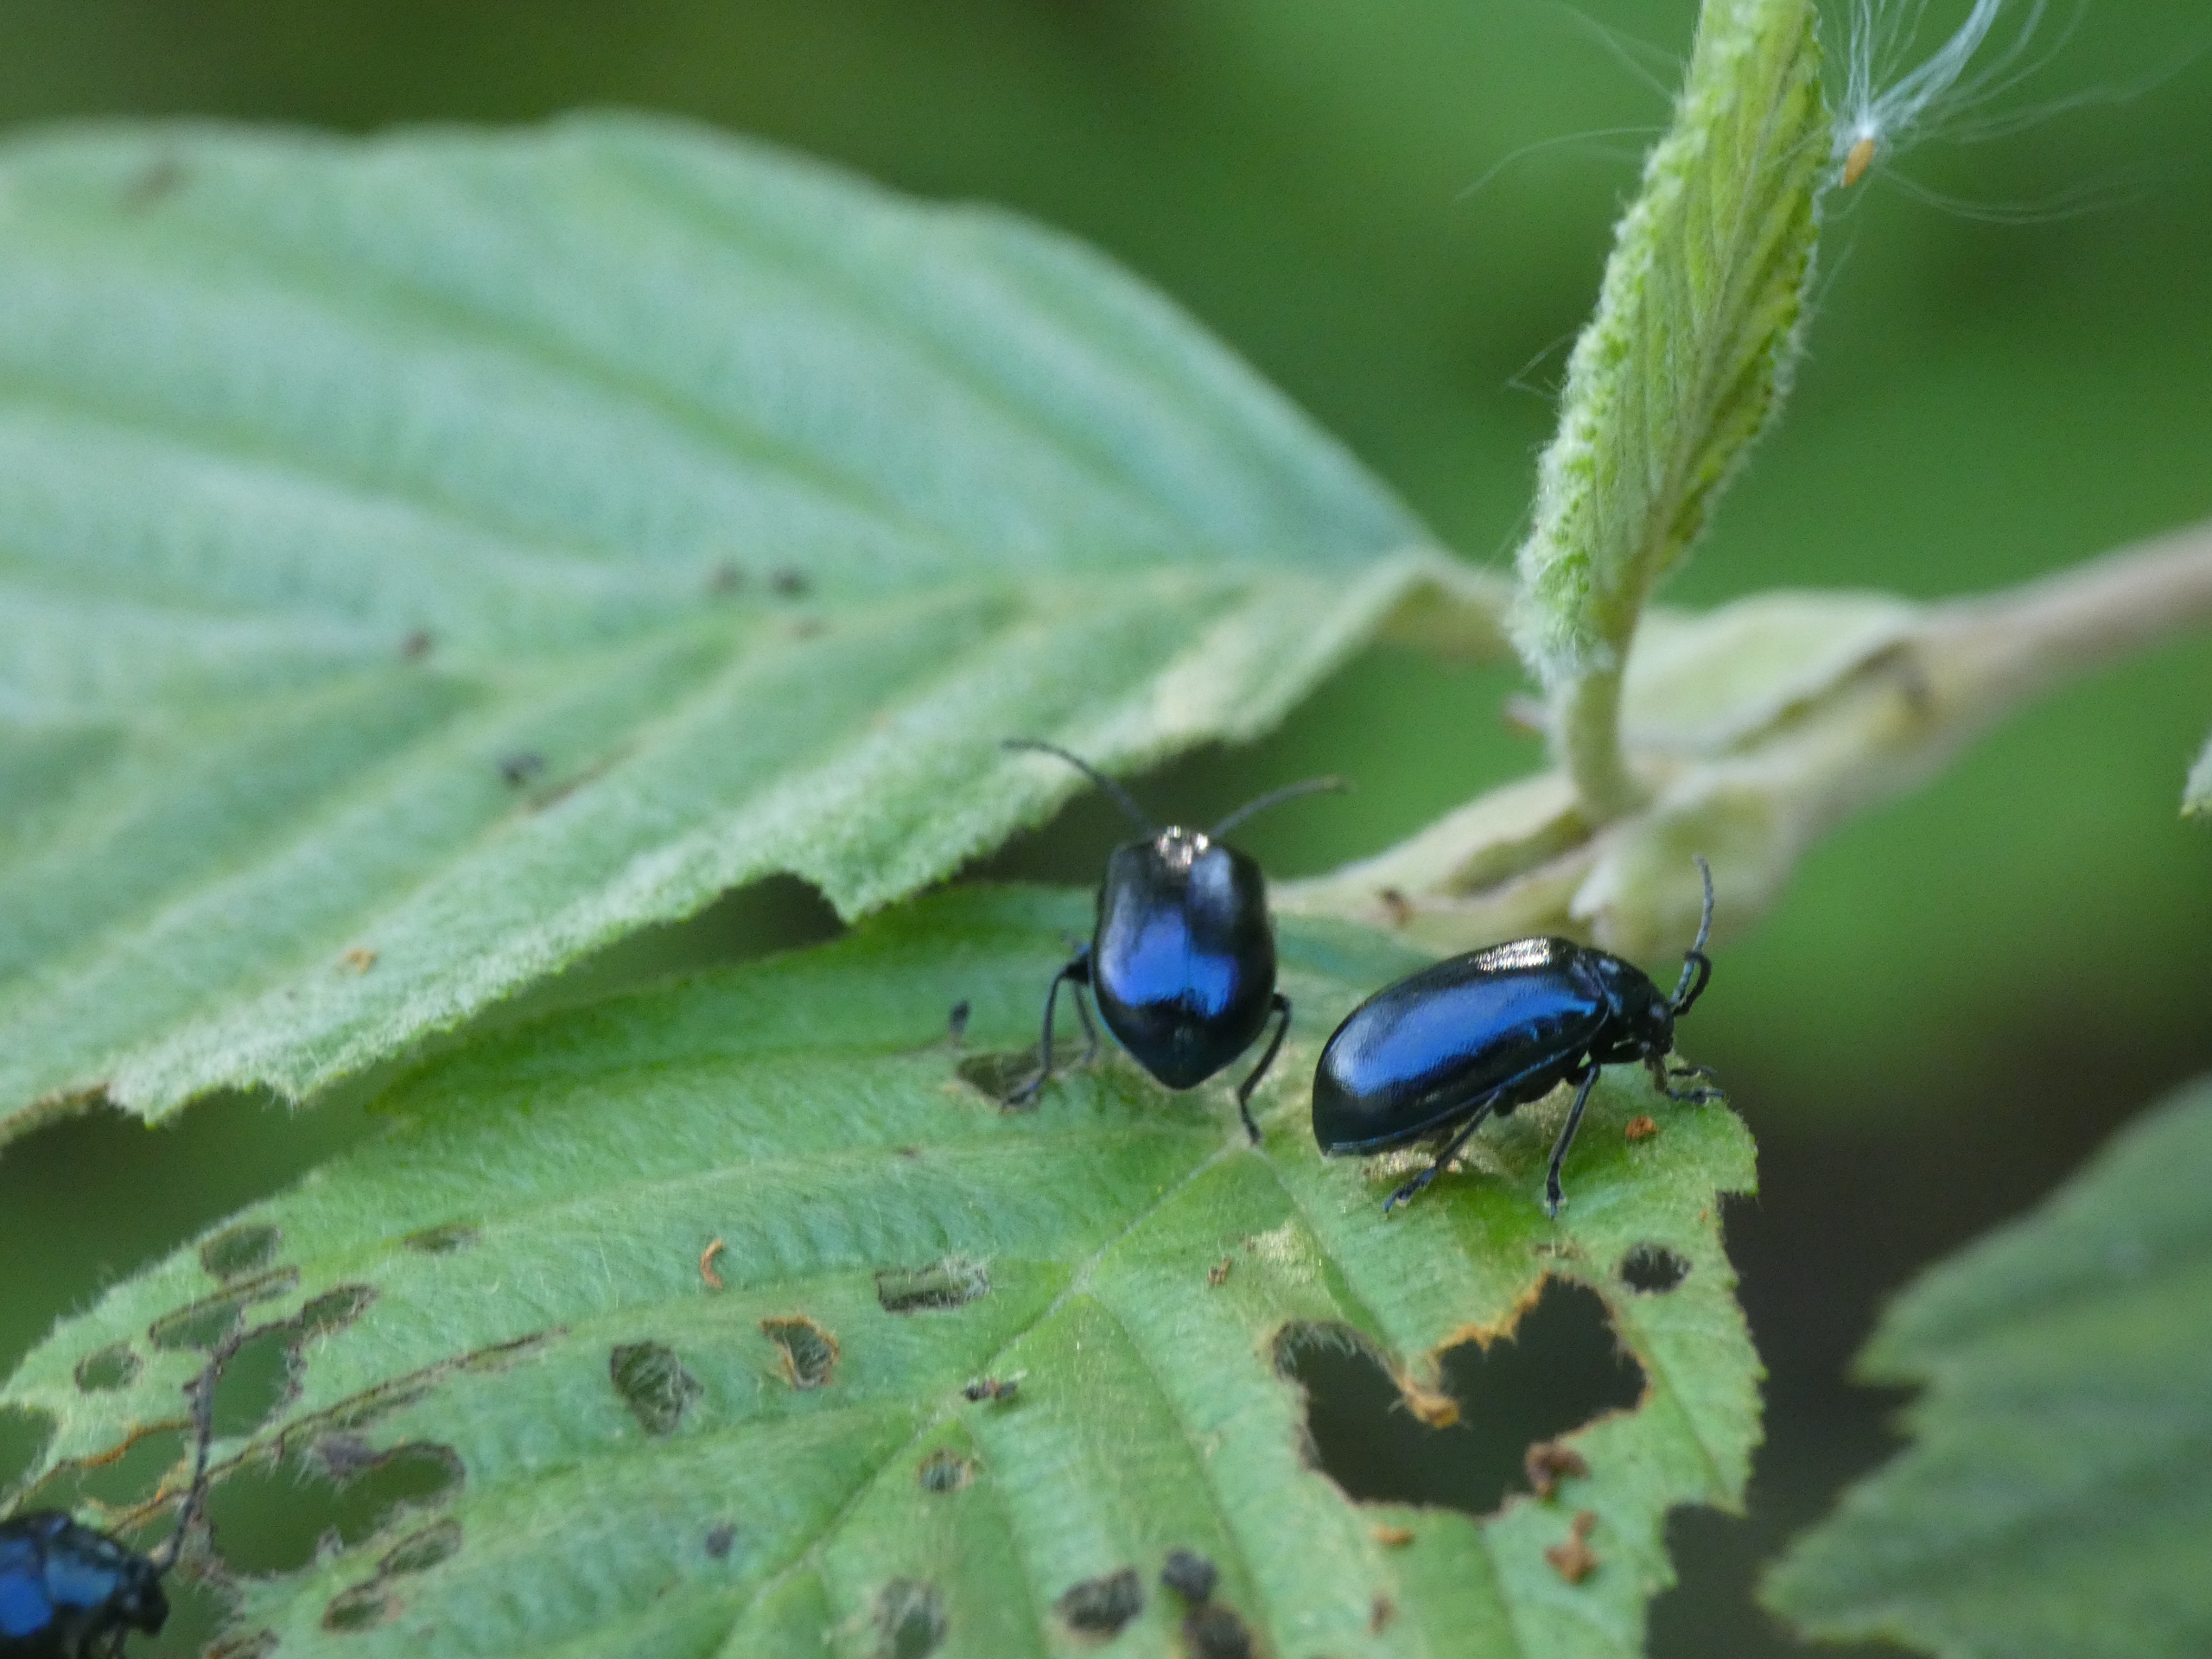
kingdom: Animalia
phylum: Arthropoda
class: Insecta
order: Coleoptera
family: Chrysomelidae
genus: Agelastica
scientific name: Agelastica alni
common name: Ellebladbille
